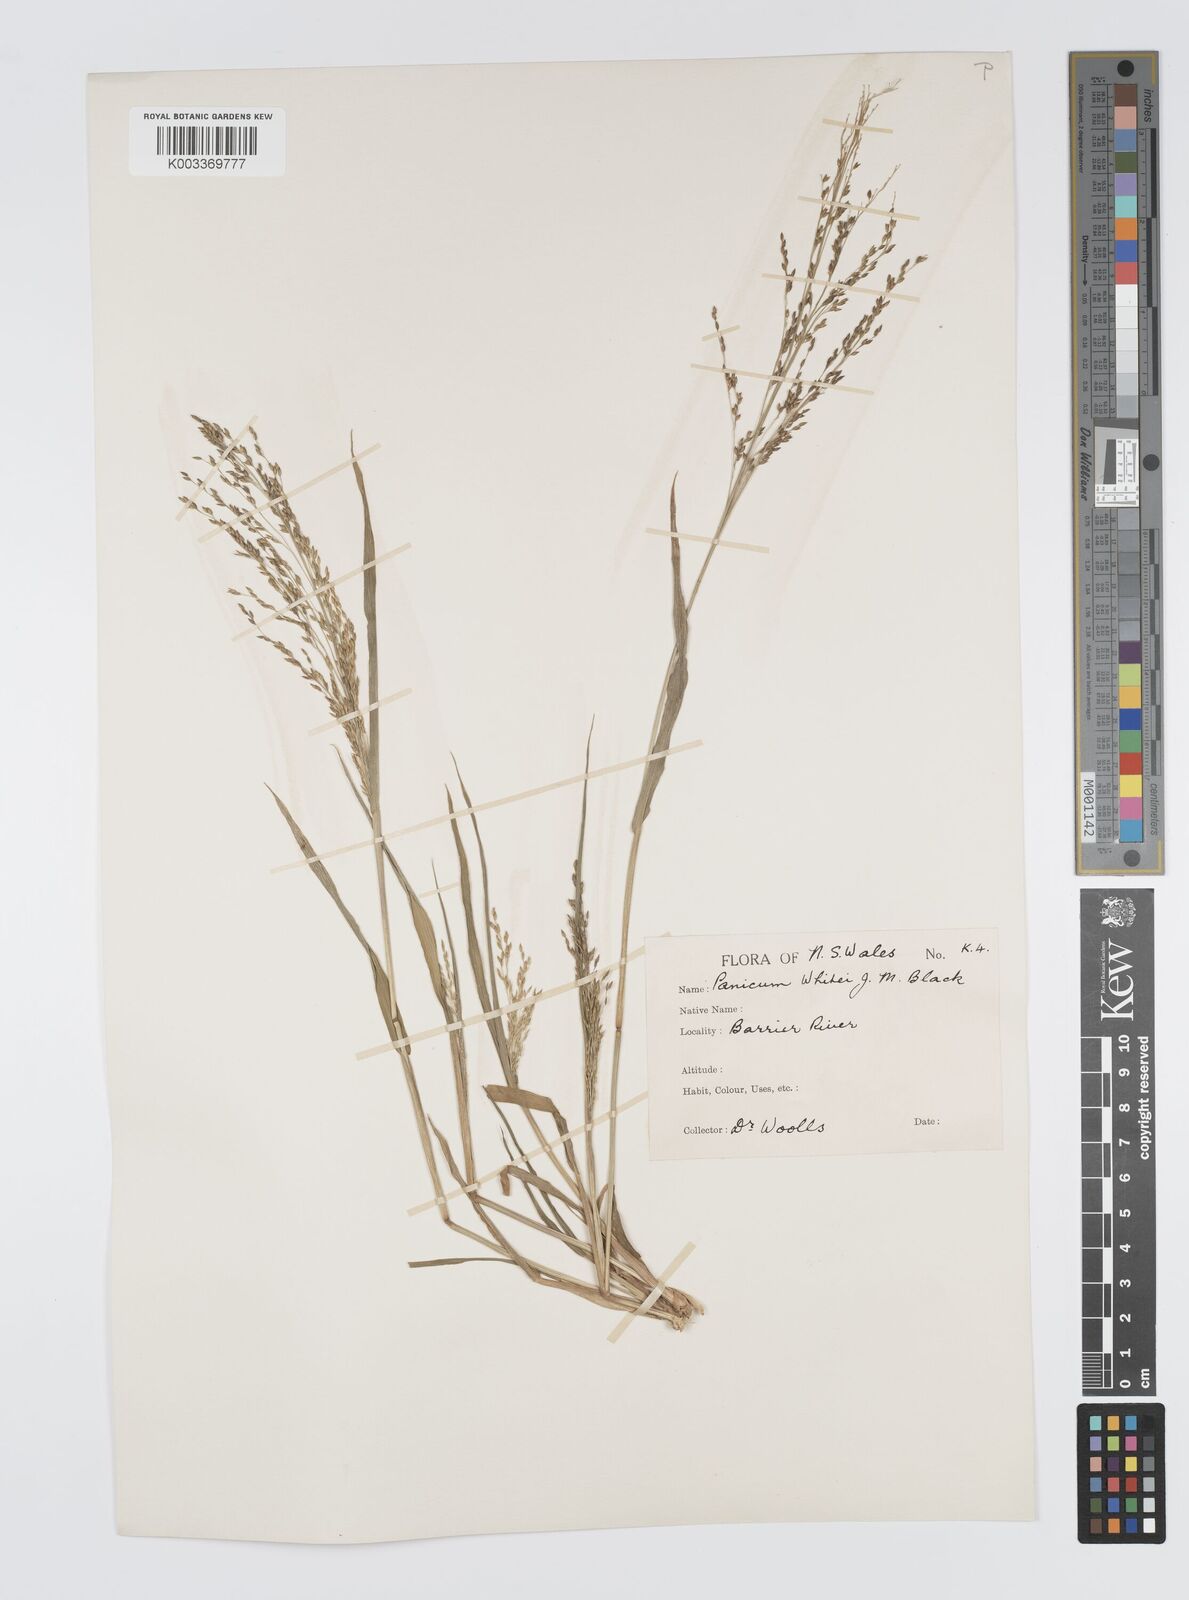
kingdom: Plantae
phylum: Tracheophyta
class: Liliopsida
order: Poales
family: Poaceae
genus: Panicum
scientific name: Panicum laevinode
